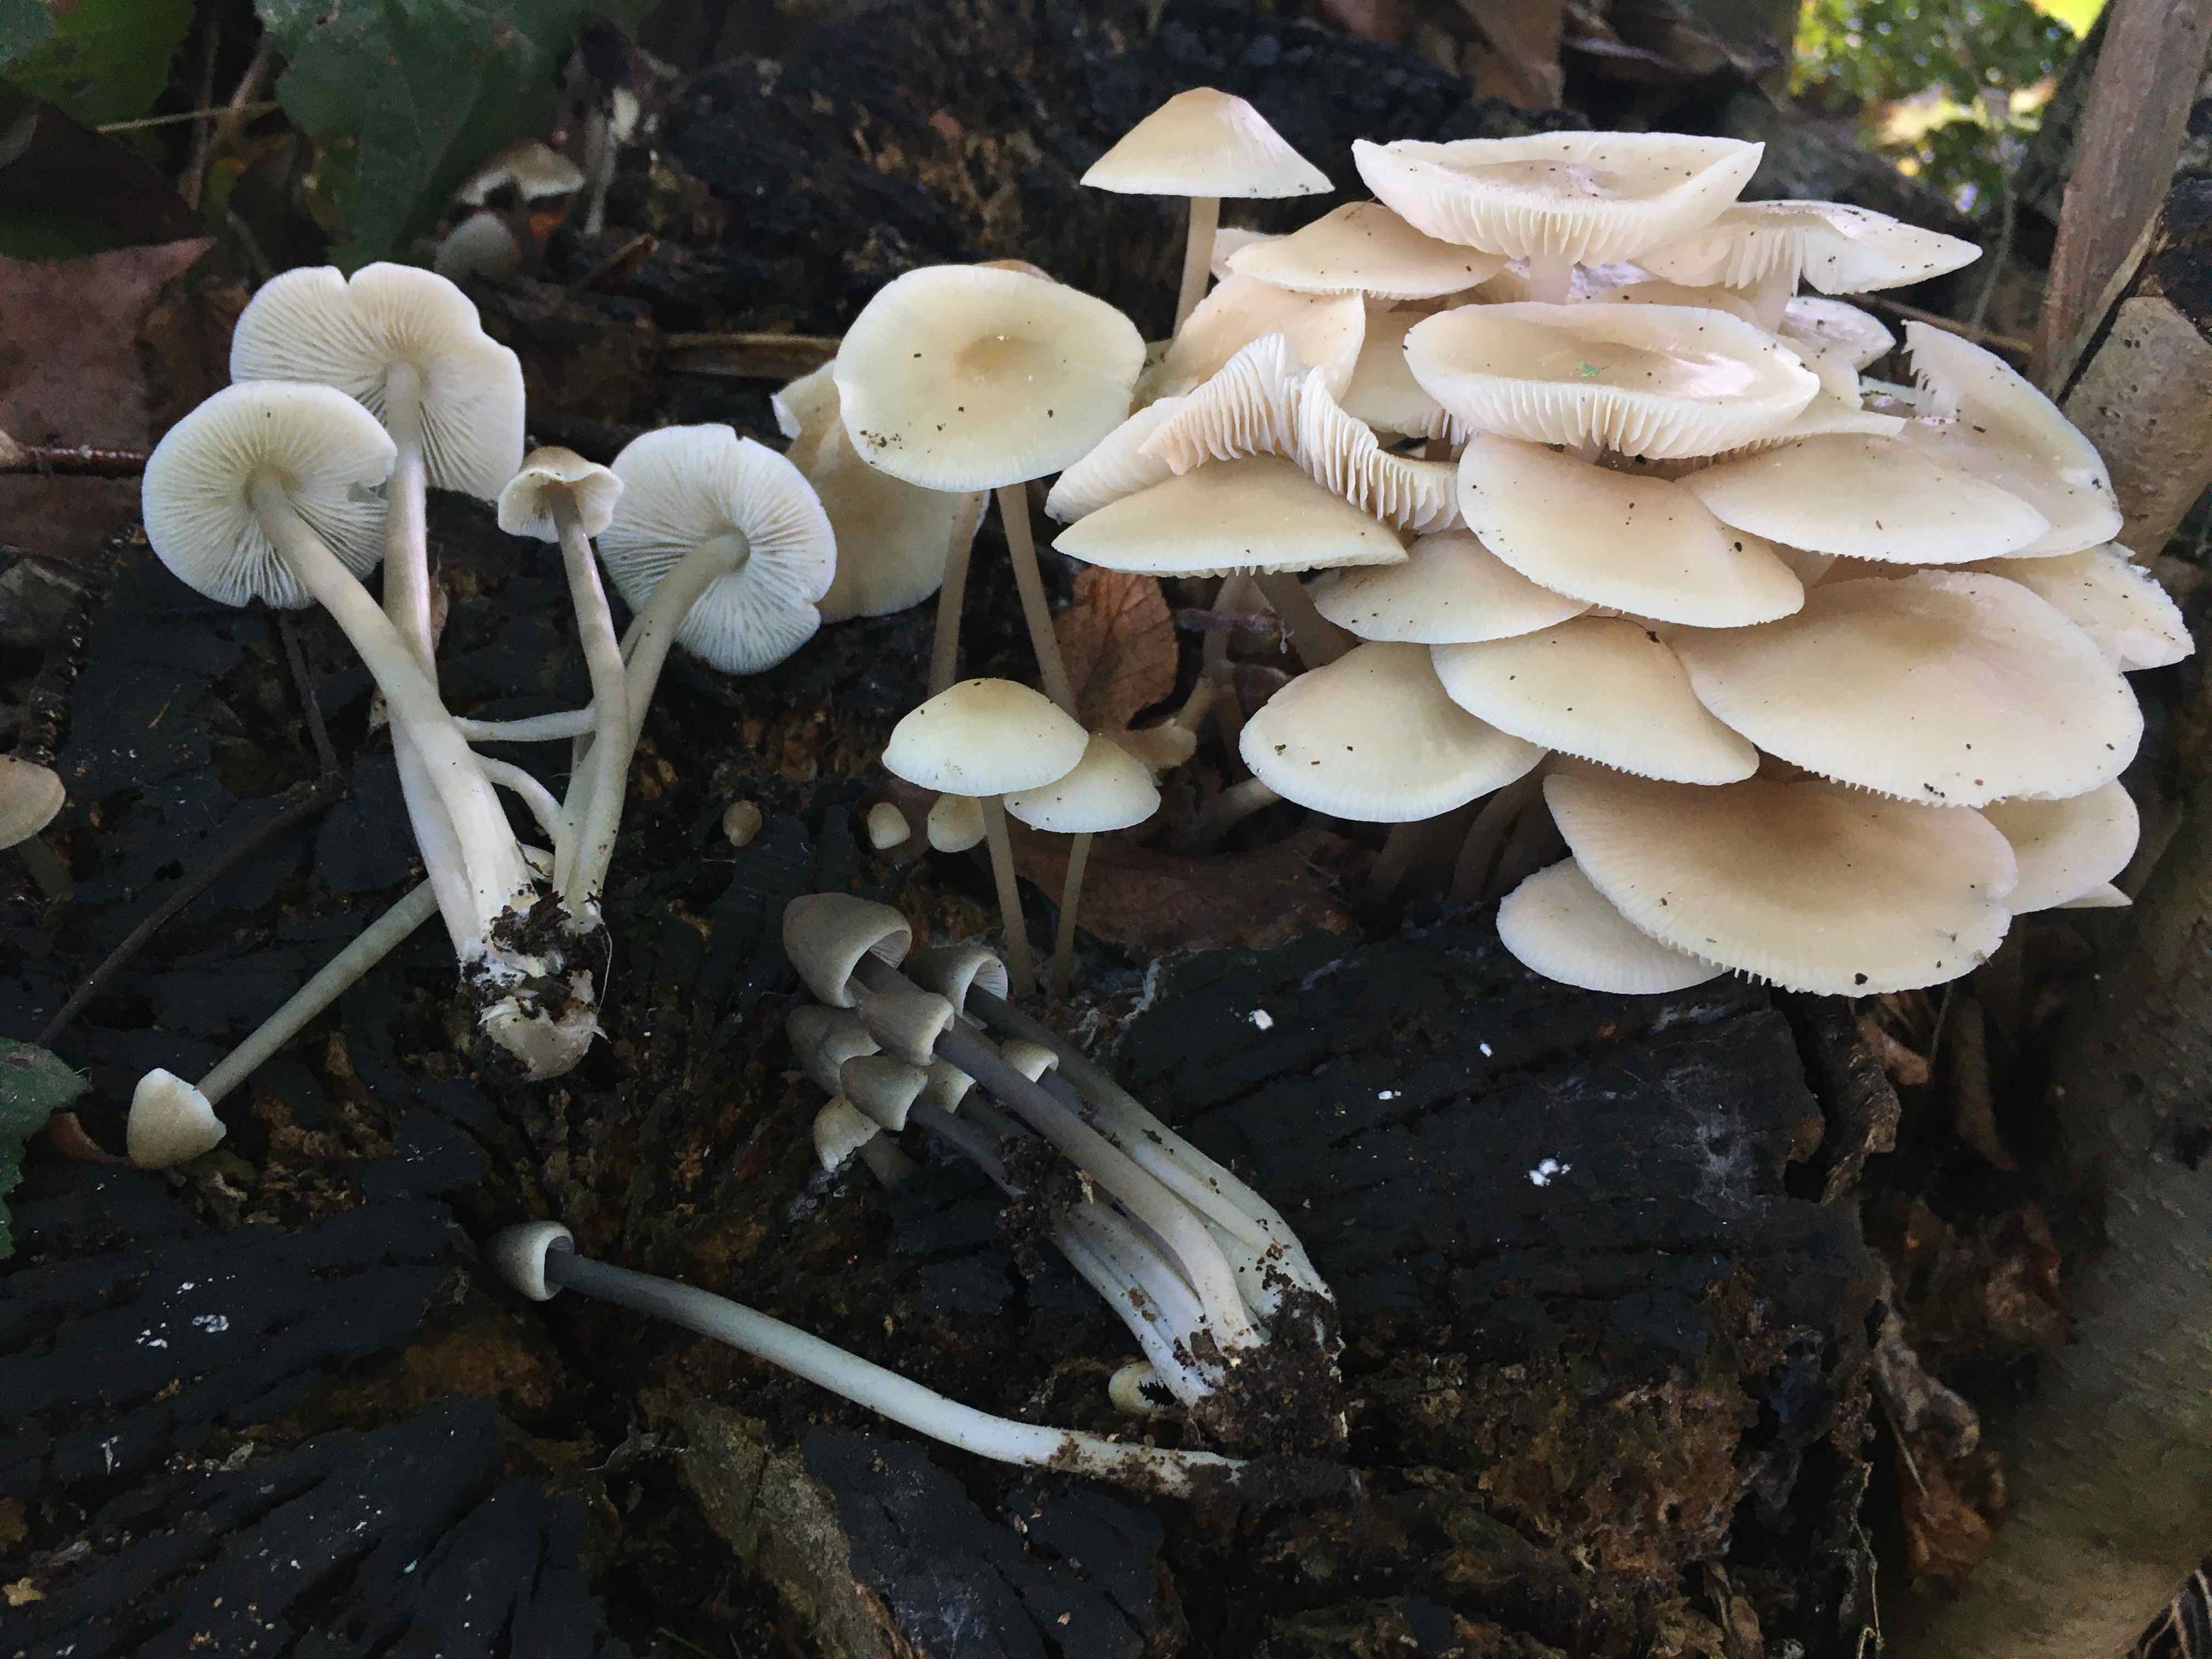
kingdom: Fungi
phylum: Basidiomycota
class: Agaricomycetes
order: Agaricales
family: Mycenaceae
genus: Mycena
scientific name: Mycena galericulata
